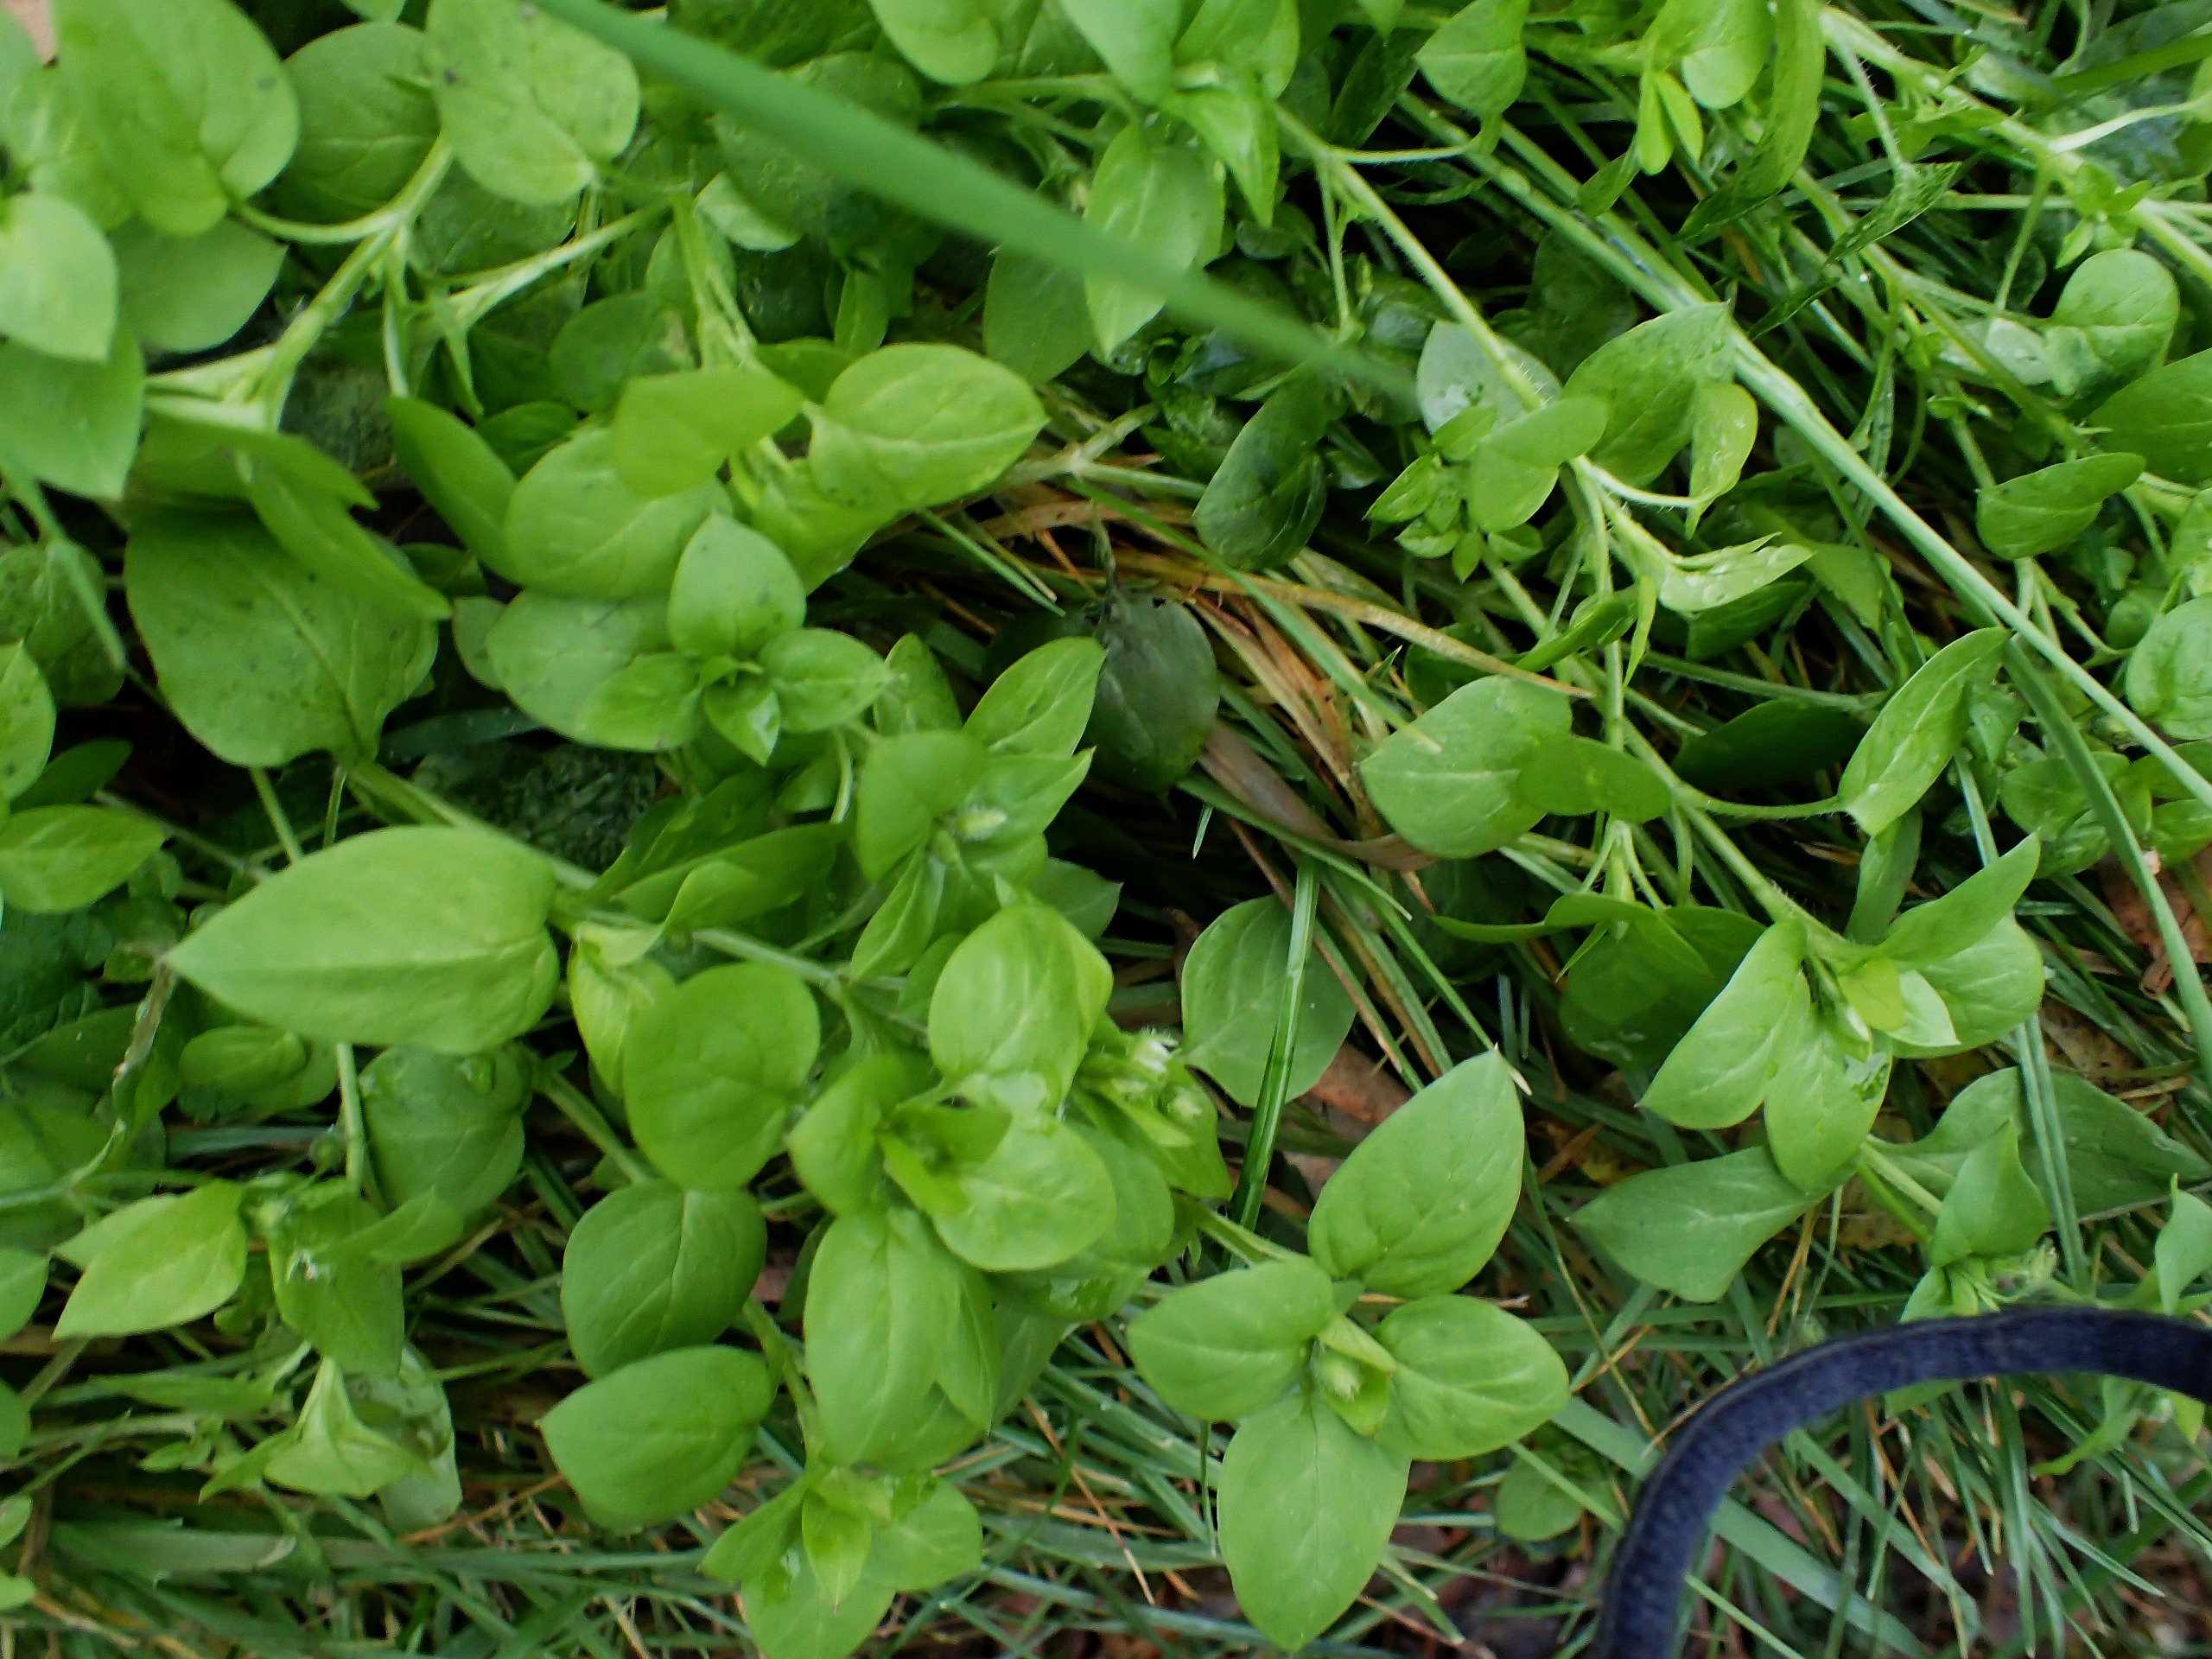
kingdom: Plantae
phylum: Tracheophyta
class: Magnoliopsida
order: Caryophyllales
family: Caryophyllaceae
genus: Stellaria
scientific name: Stellaria media
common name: Almindelig fuglegræs
